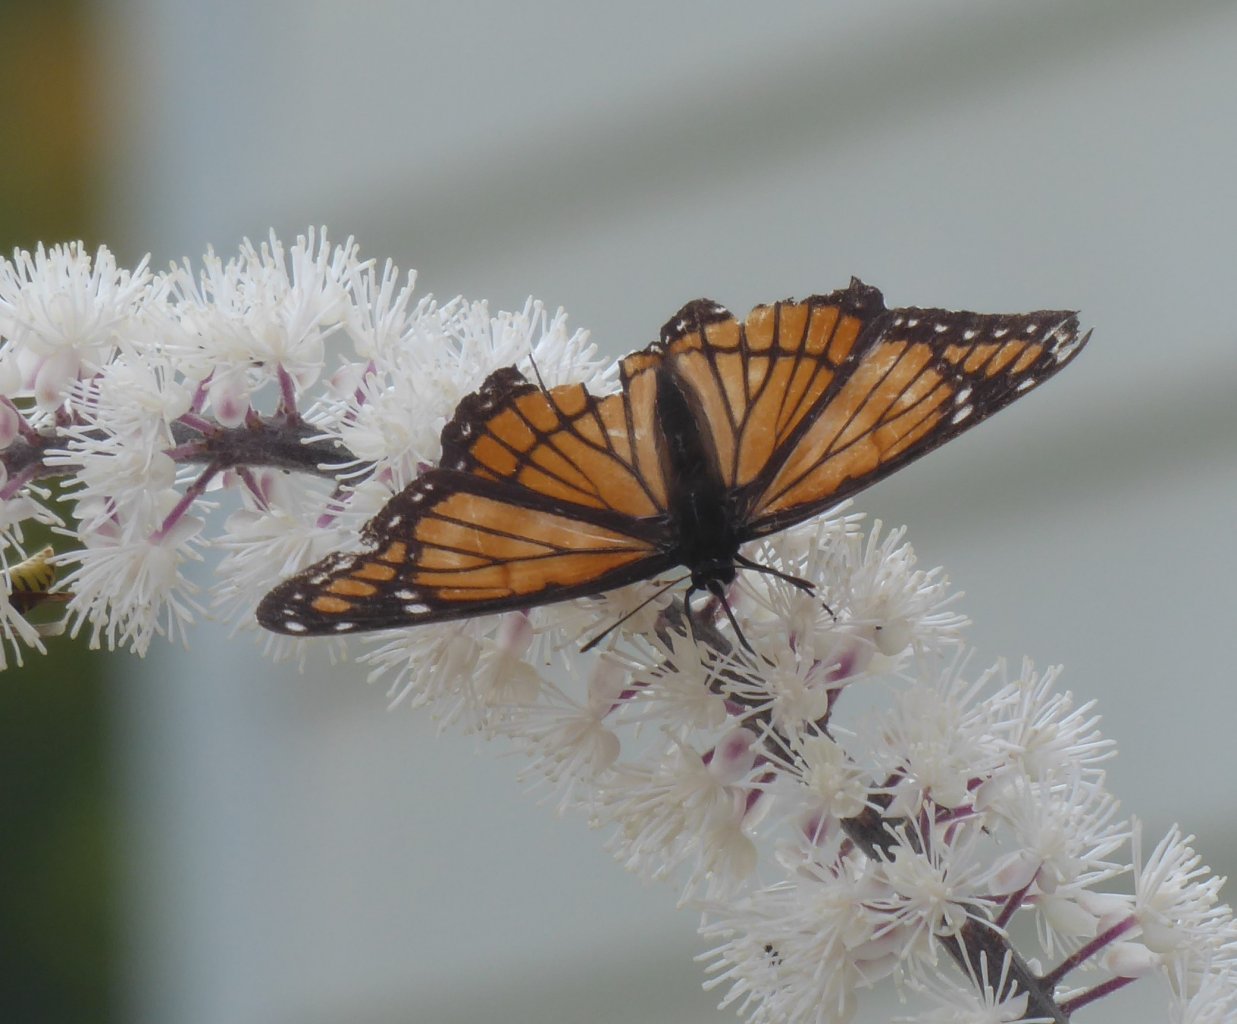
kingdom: Animalia
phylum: Arthropoda
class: Insecta
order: Lepidoptera
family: Nymphalidae
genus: Limenitis
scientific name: Limenitis archippus
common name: Viceroy
